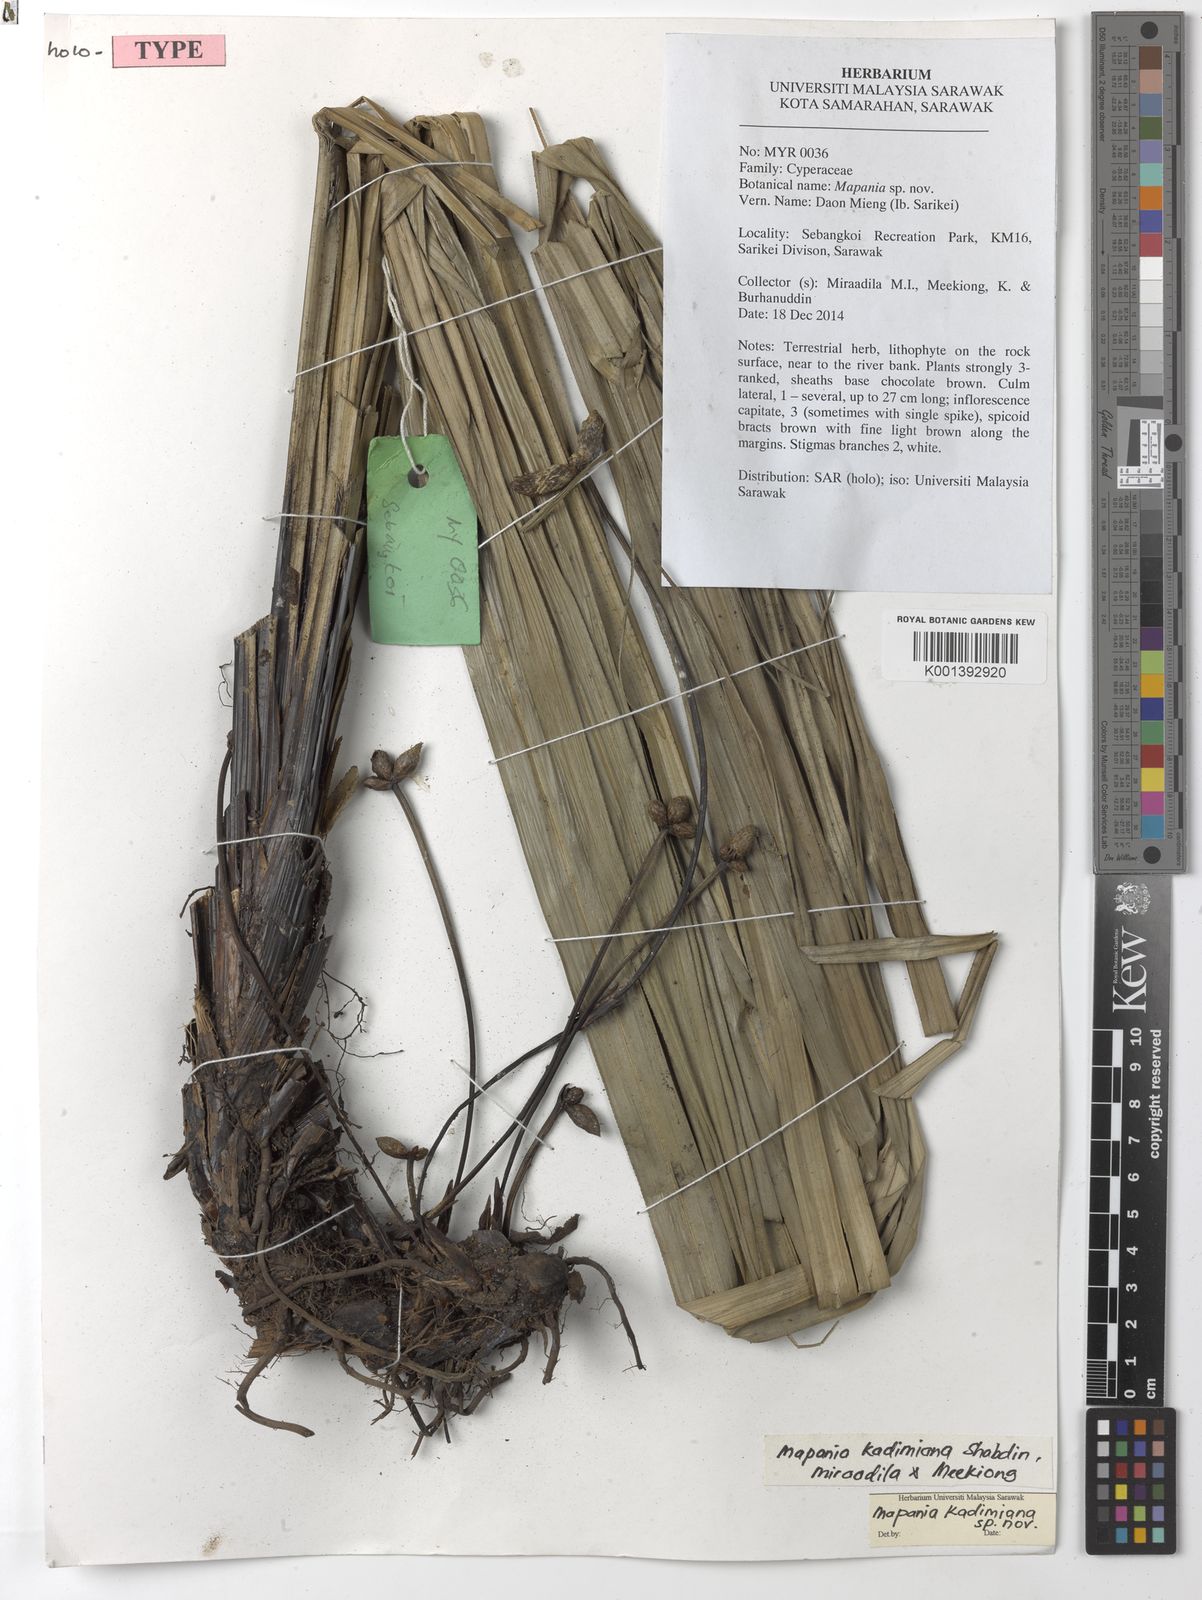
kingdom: Plantae
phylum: Tracheophyta
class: Liliopsida
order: Poales
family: Cyperaceae
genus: Mapania
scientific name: Mapania kadimiana
